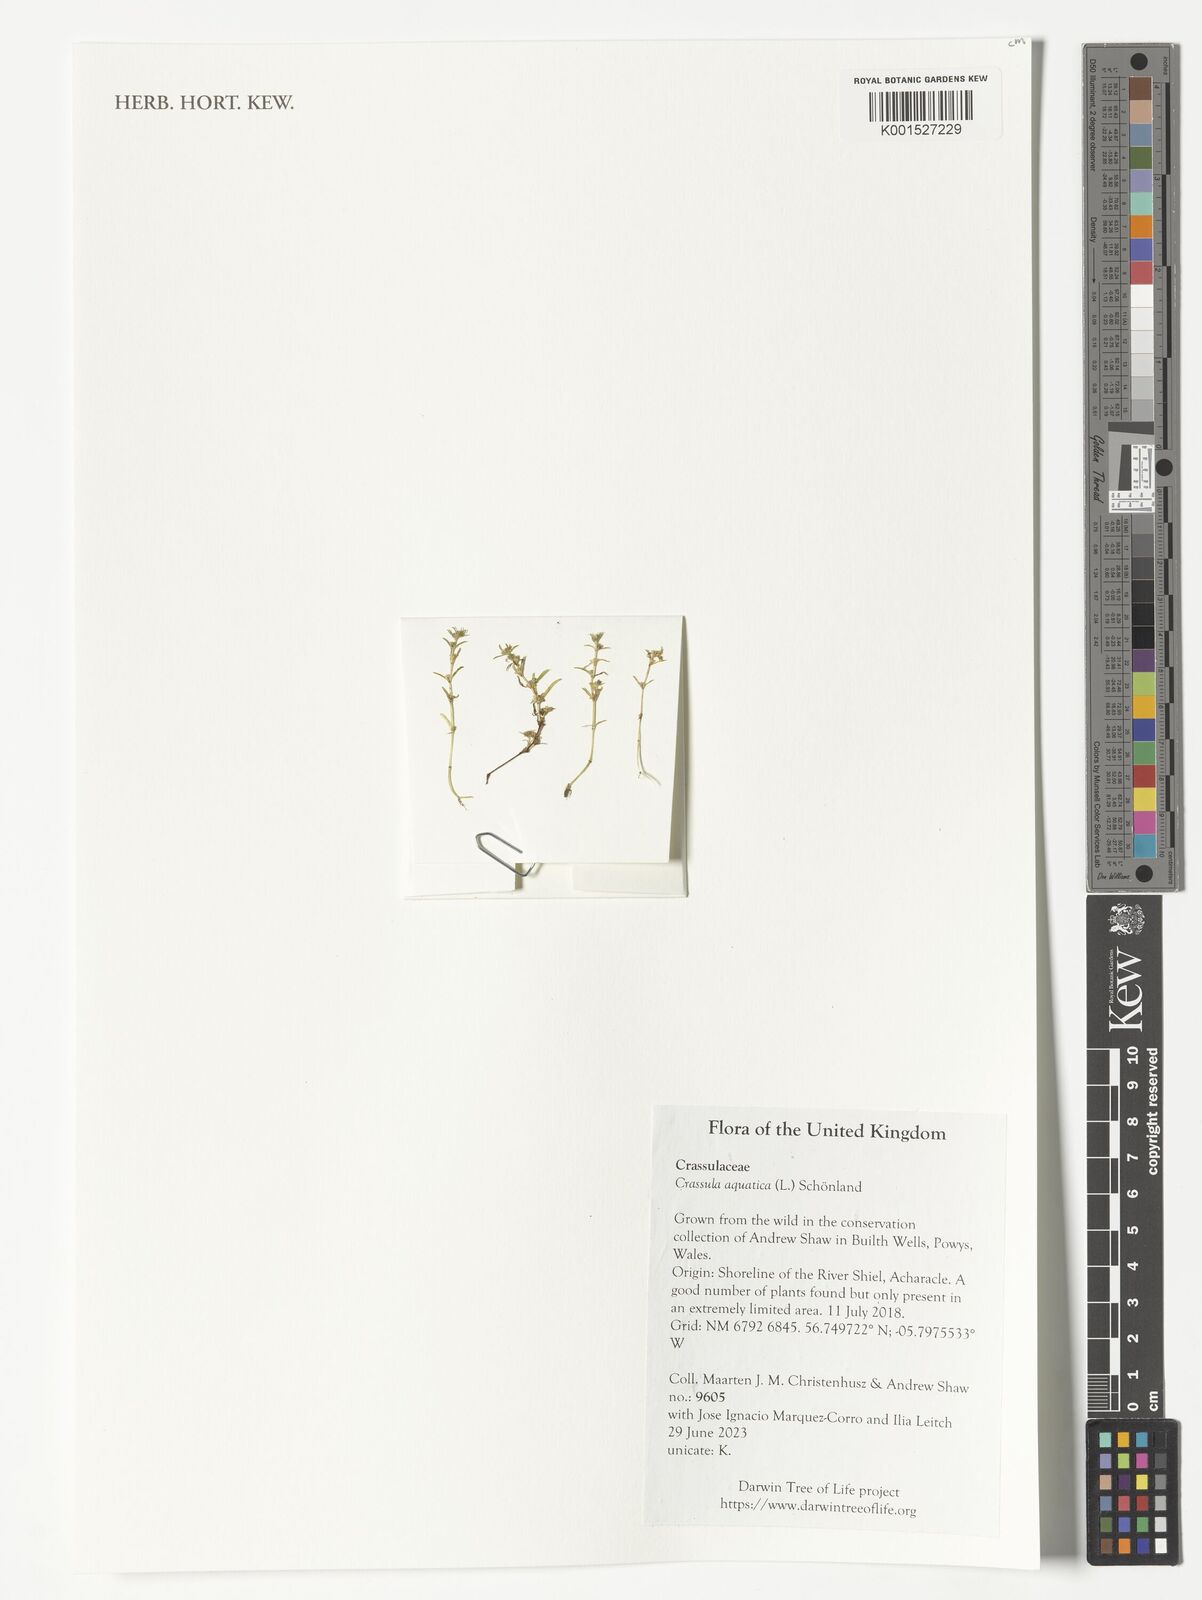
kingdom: Plantae
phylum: Tracheophyta
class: Magnoliopsida
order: Saxifragales
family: Crassulaceae
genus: Crassula
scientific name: Crassula aquatica
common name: Pigmyweed
